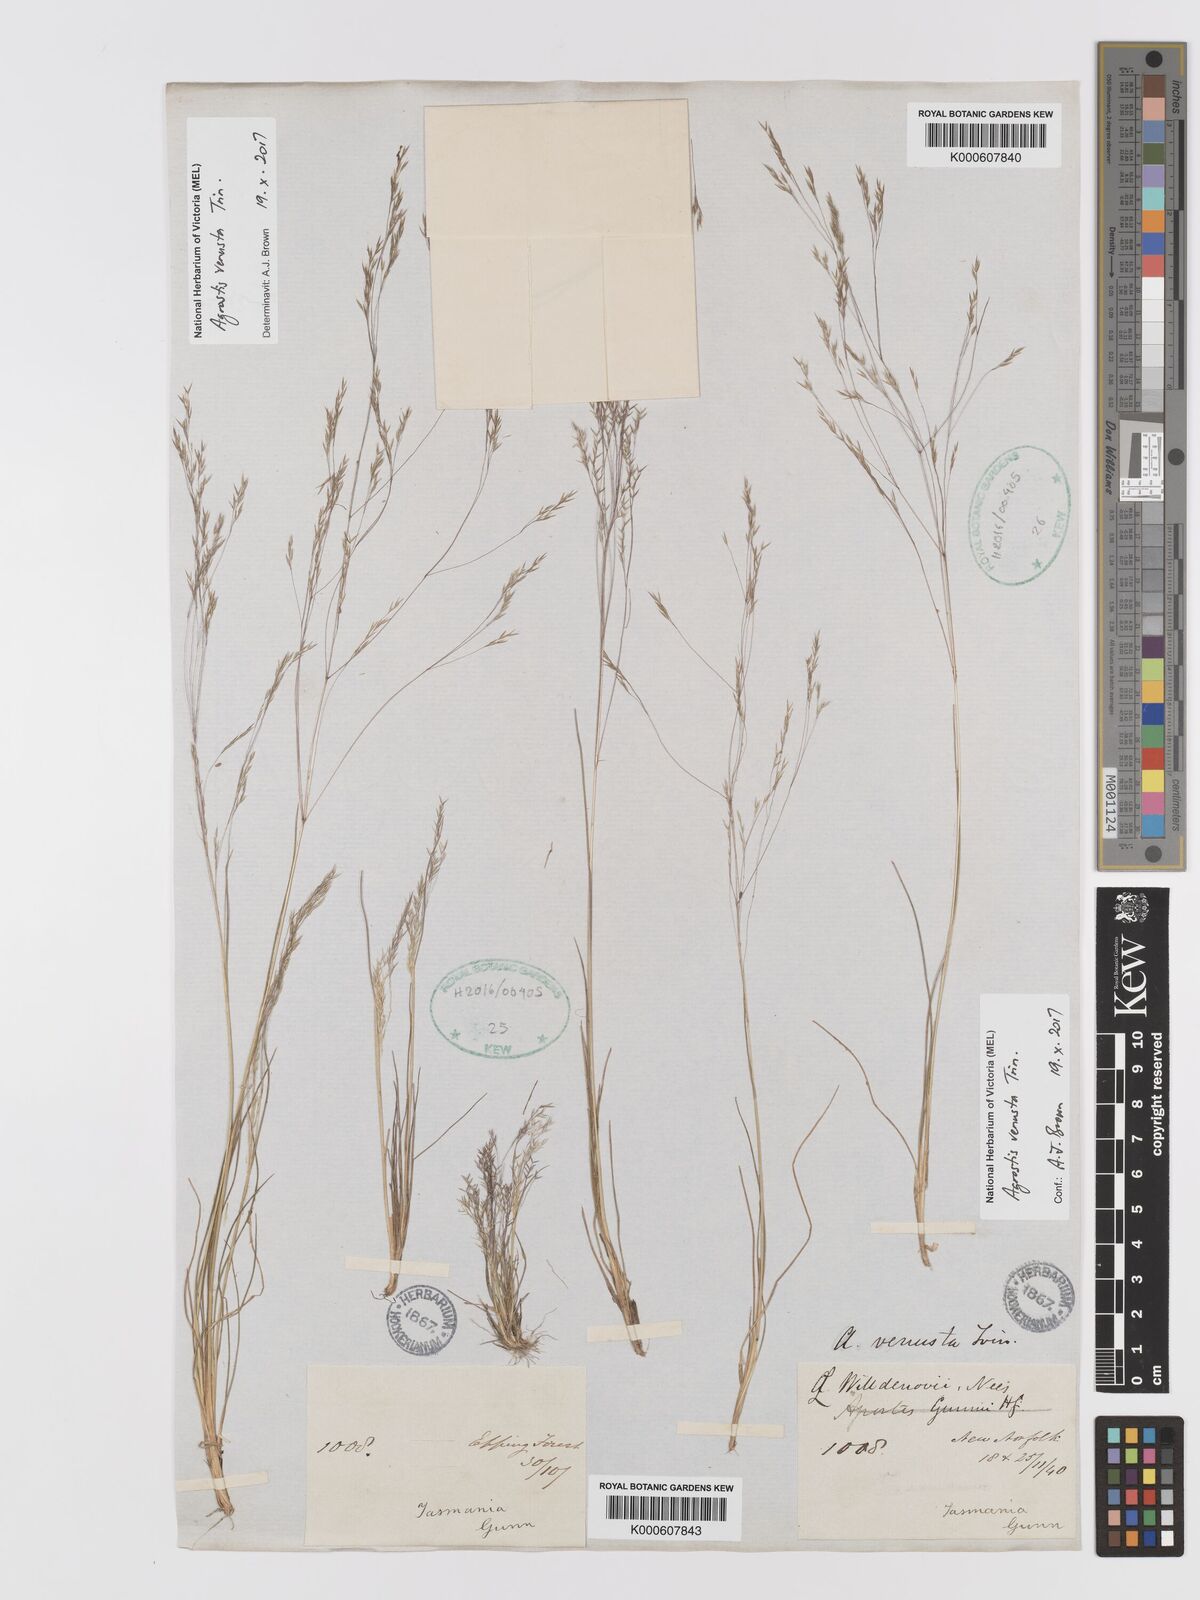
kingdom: Plantae
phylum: Tracheophyta
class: Liliopsida
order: Poales
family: Poaceae
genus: Agrostis
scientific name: Agrostis venusta
